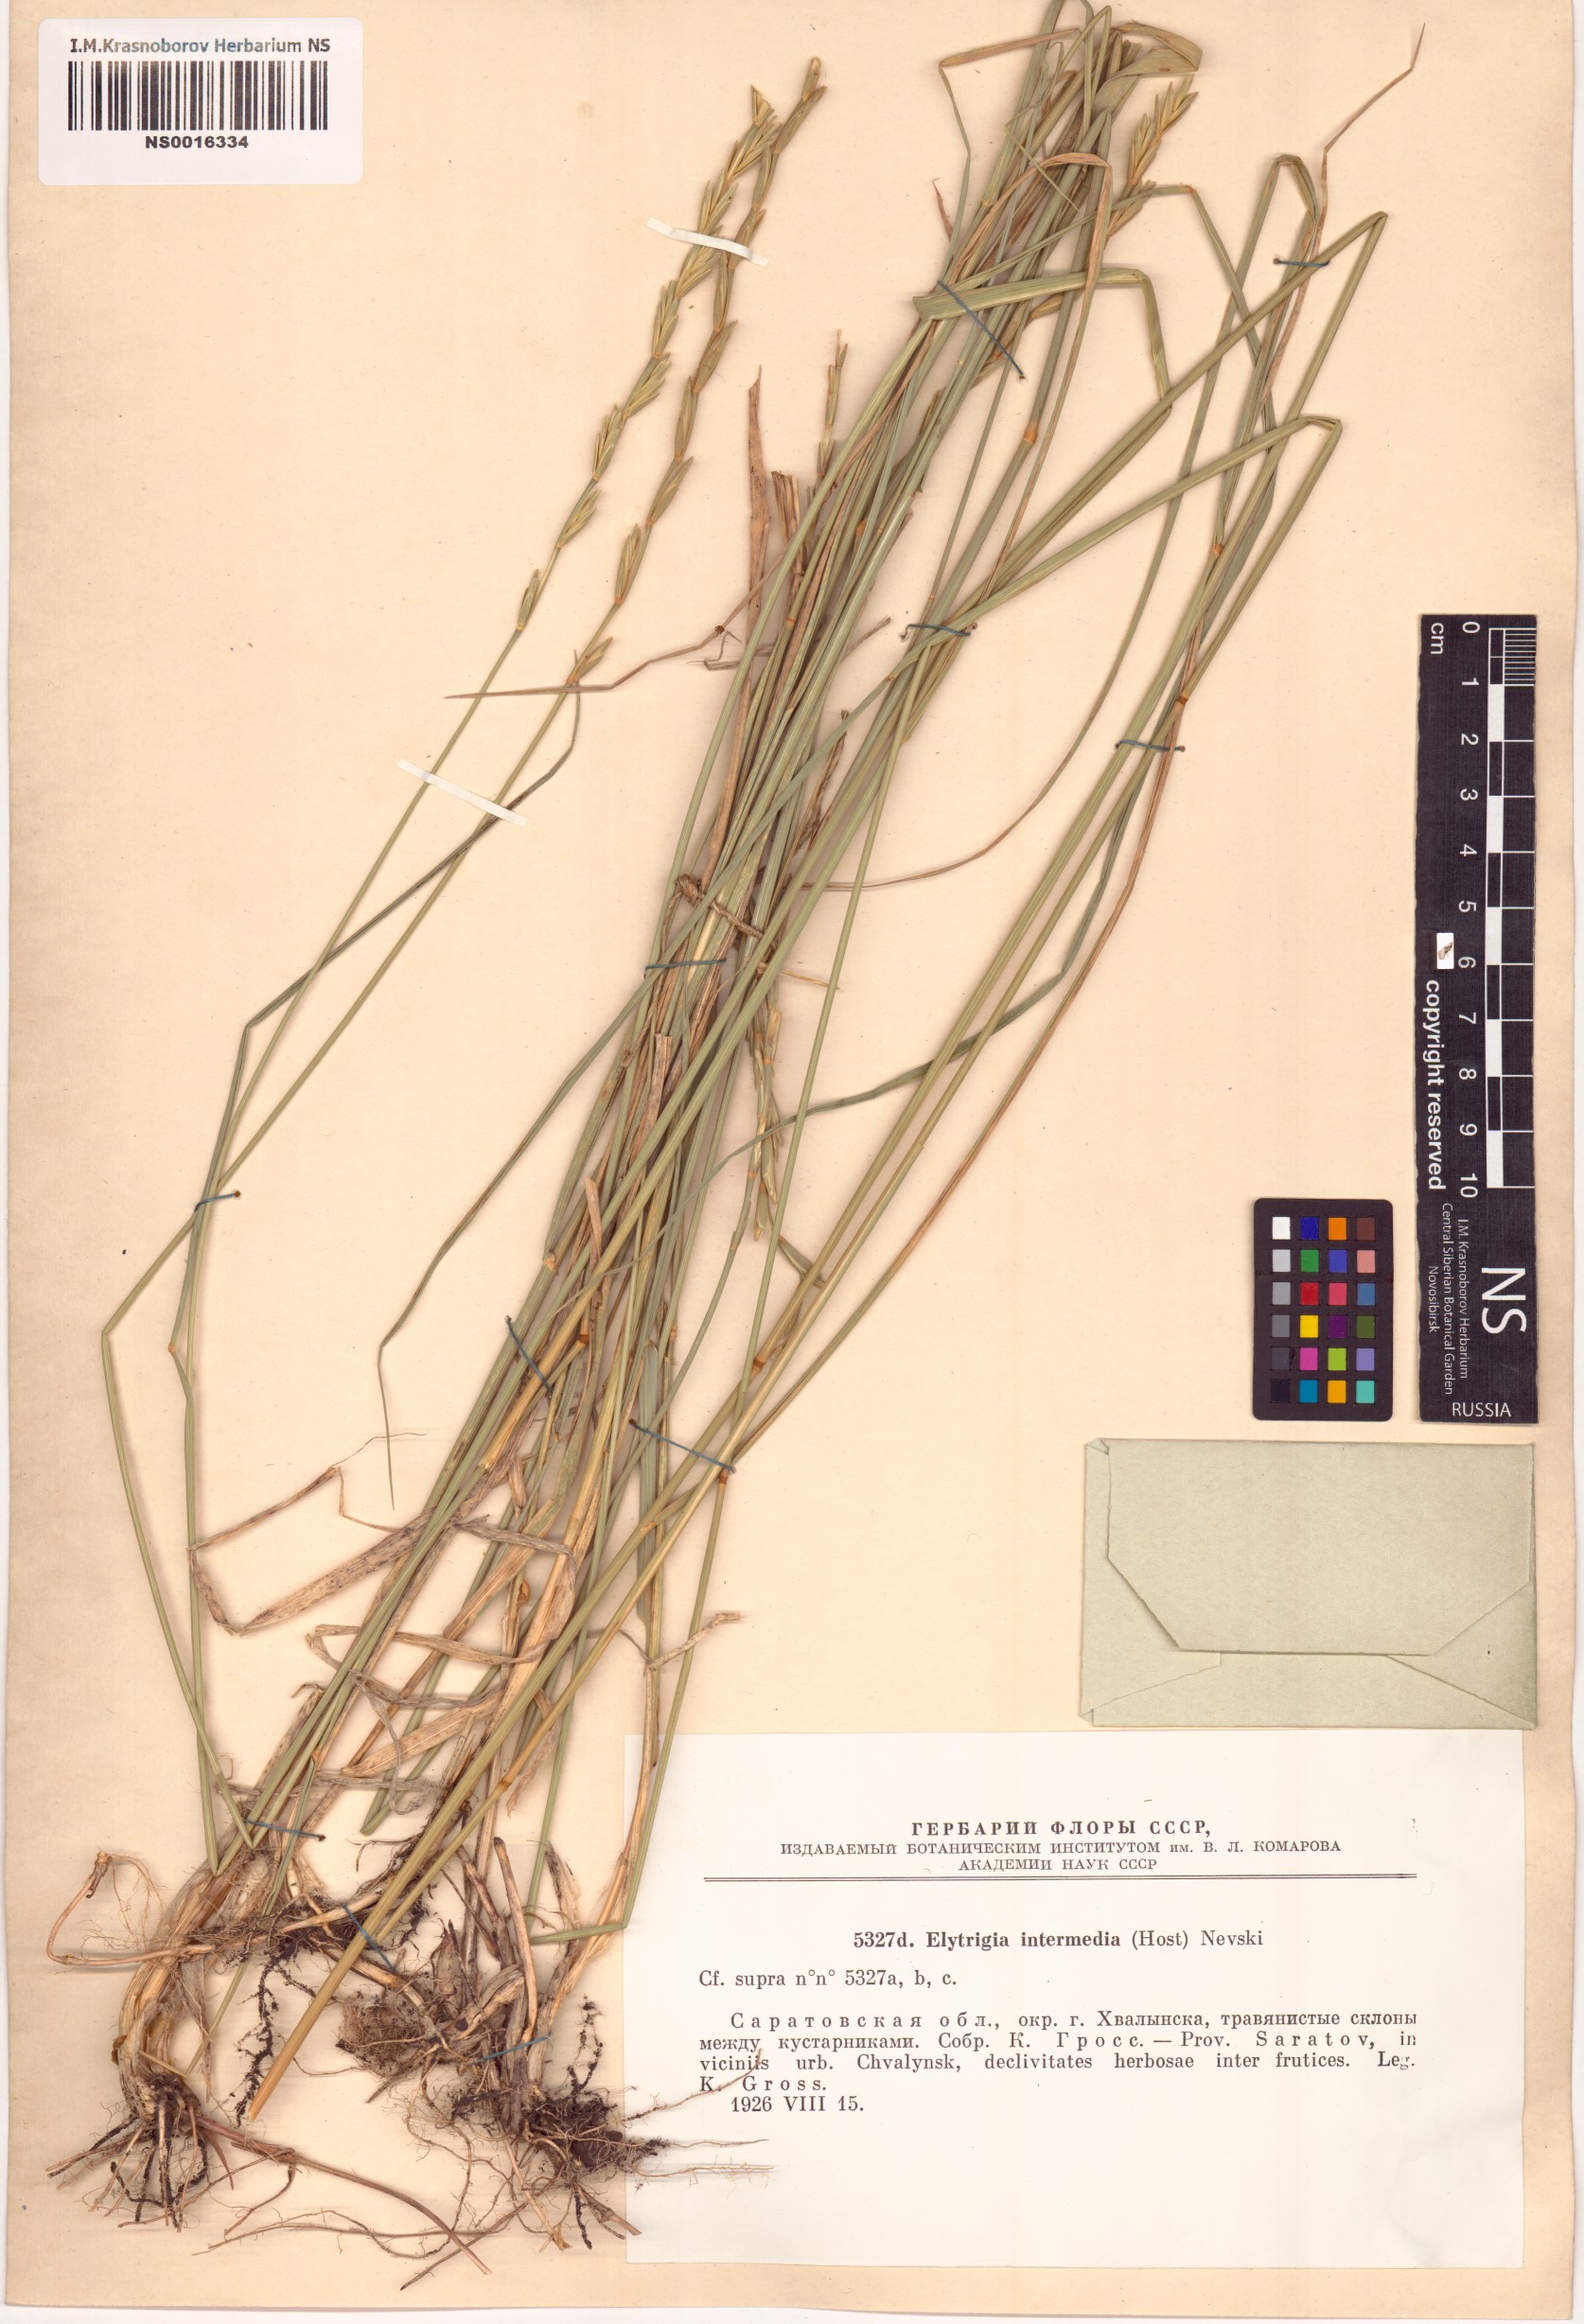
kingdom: Plantae
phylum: Tracheophyta
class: Liliopsida
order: Poales
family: Poaceae
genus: Thinopyrum
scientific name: Thinopyrum intermedium
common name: Intermediate wheatgrass
